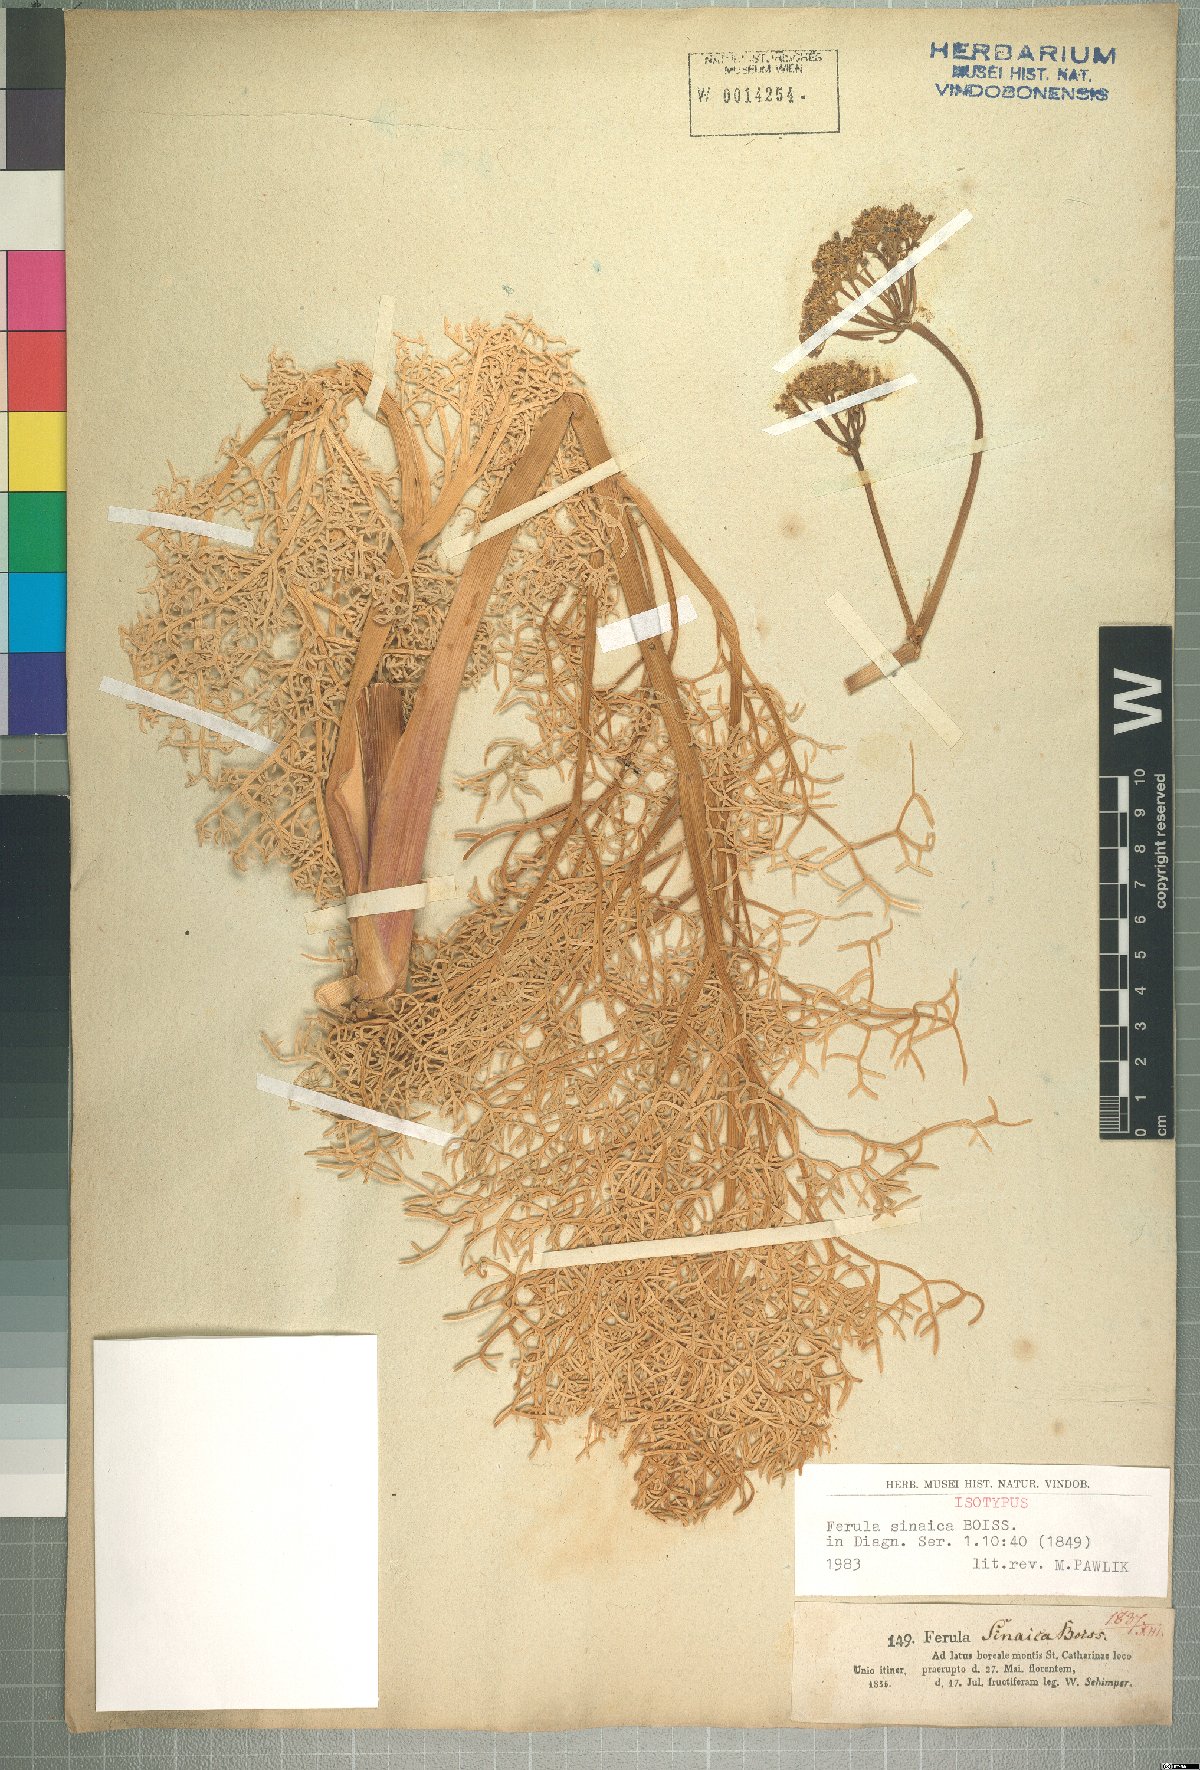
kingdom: Plantae
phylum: Tracheophyta
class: Magnoliopsida
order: Apiales
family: Apiaceae
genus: Ferula
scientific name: Ferula sinaica
